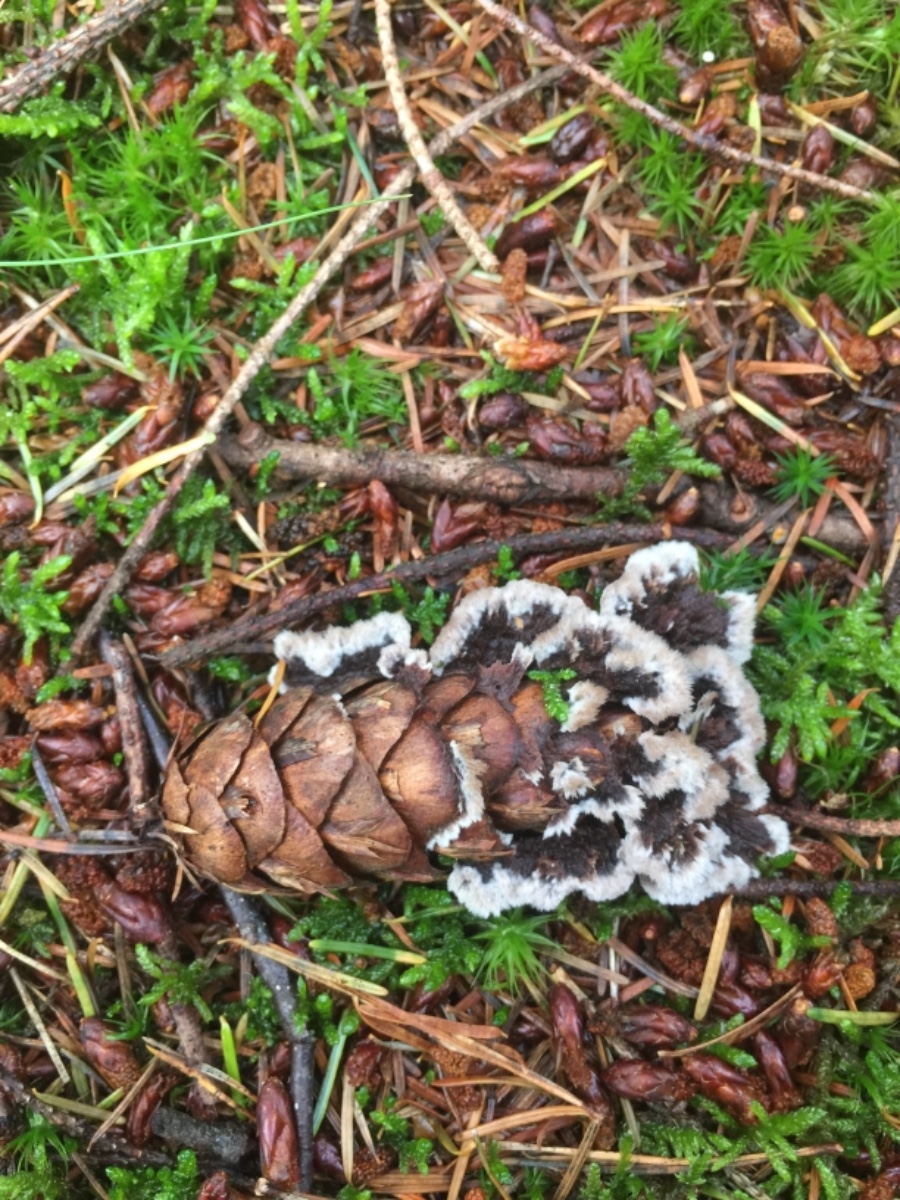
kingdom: Fungi
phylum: Basidiomycota
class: Agaricomycetes
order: Thelephorales
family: Thelephoraceae
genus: Thelephora
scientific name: Thelephora terrestris
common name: fliget frynsesvamp
